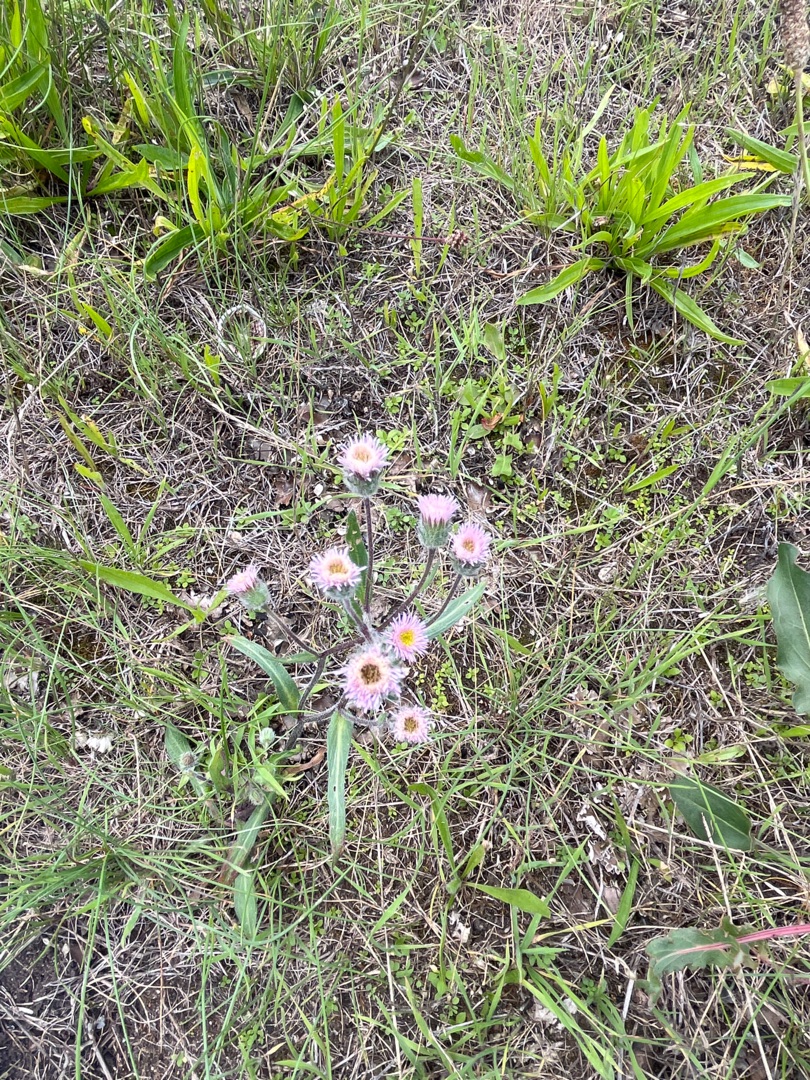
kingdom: Plantae
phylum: Tracheophyta
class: Magnoliopsida
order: Asterales
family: Asteraceae
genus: Erigeron
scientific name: Erigeron acris
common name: Bitter bakkestjerne
